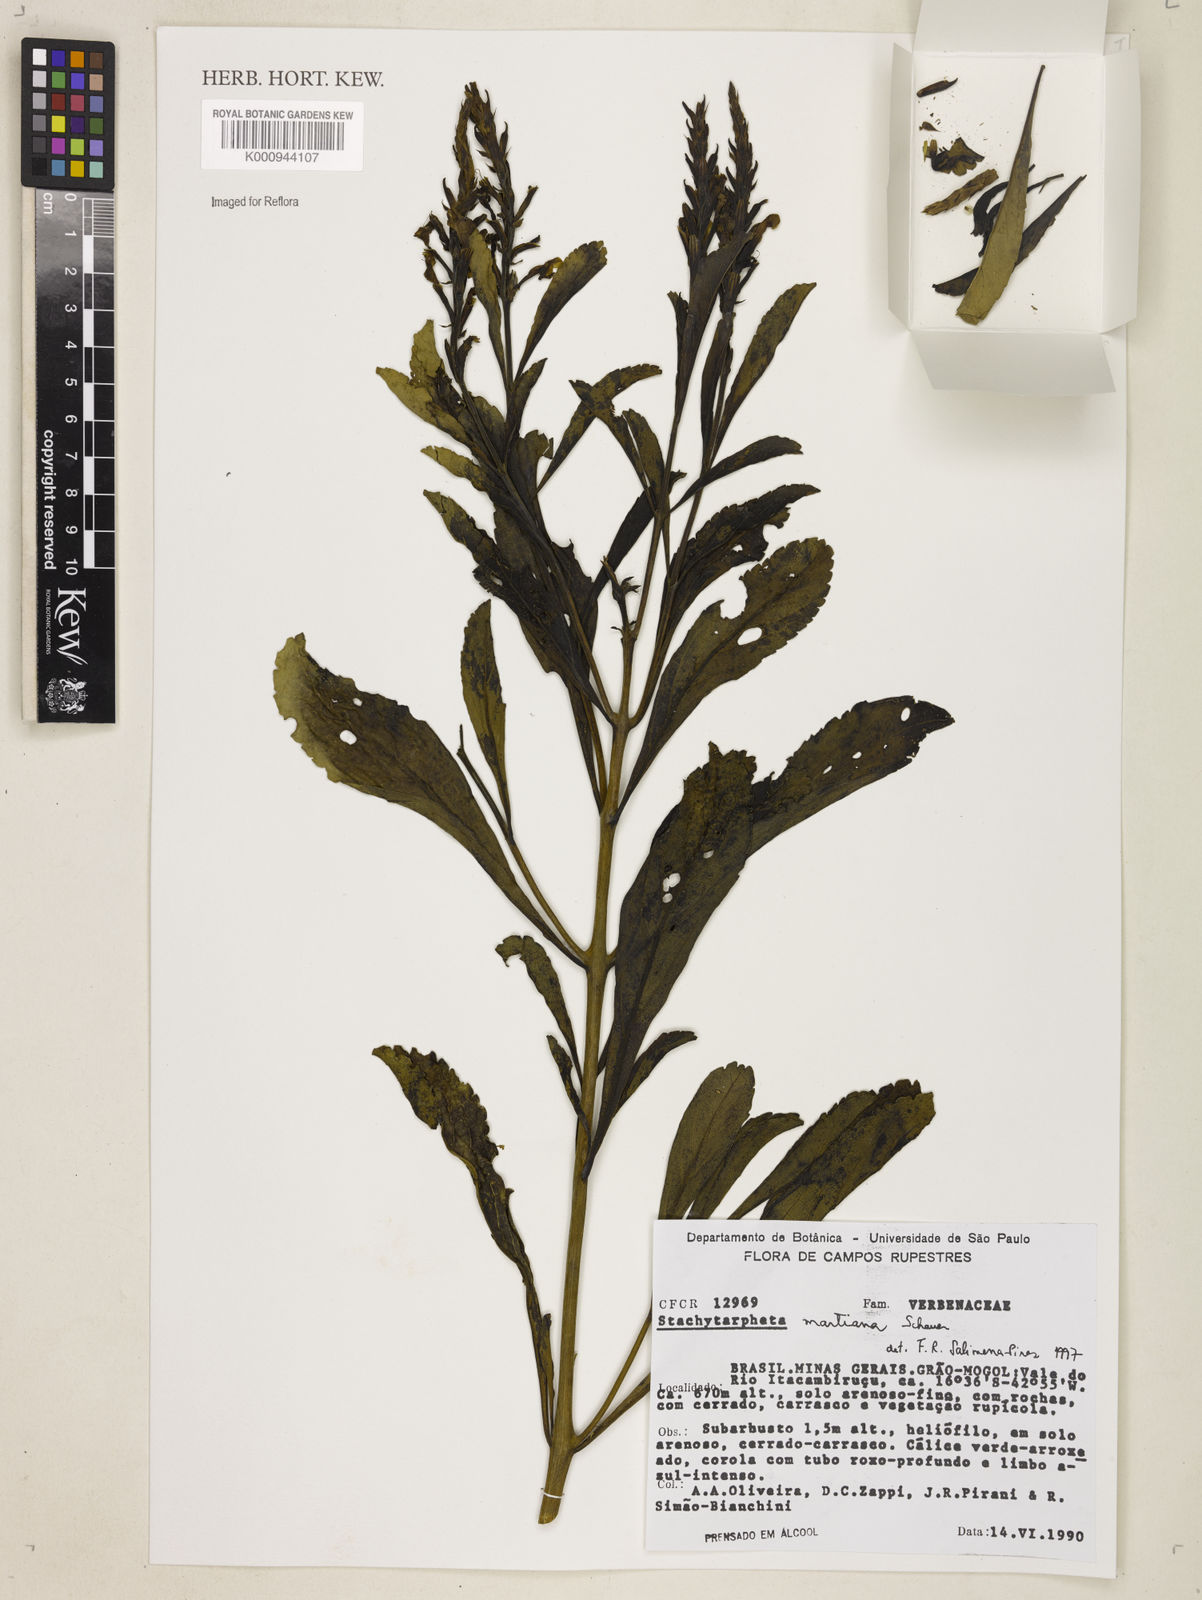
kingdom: Plantae
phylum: Tracheophyta
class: Magnoliopsida
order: Lamiales
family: Verbenaceae
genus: Stachytarpheta
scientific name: Stachytarpheta martiana
